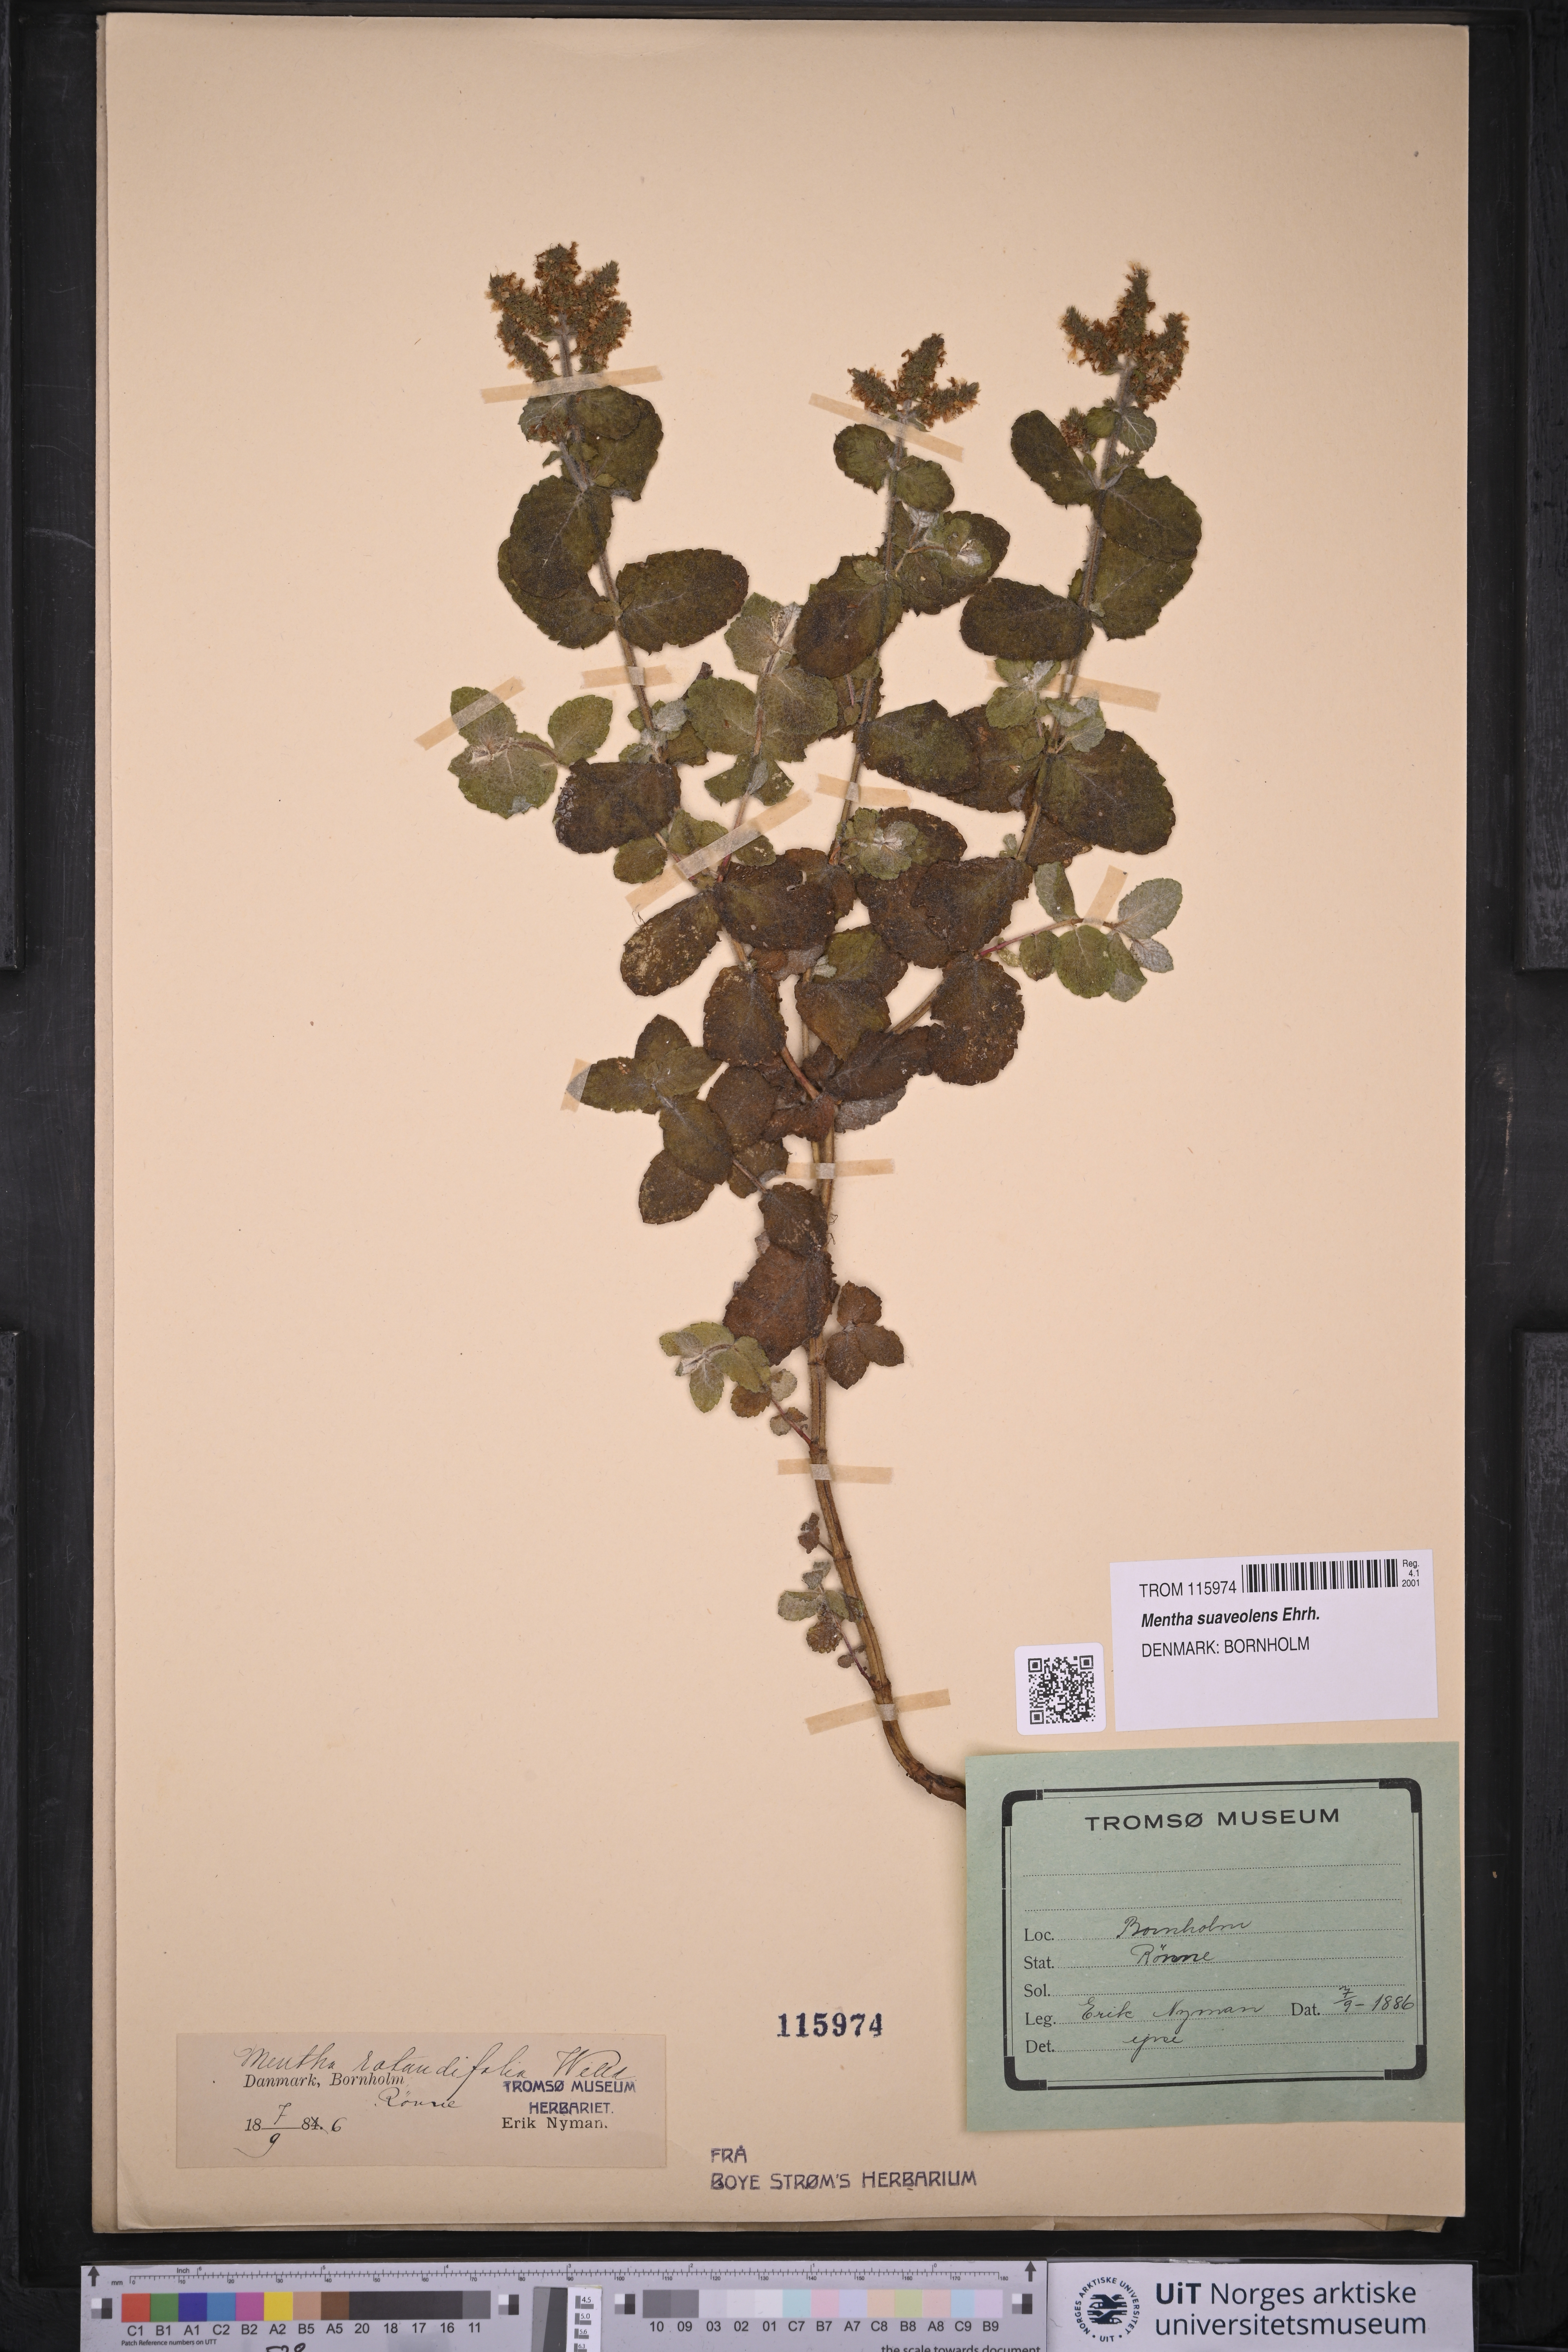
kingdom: Plantae
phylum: Tracheophyta
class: Magnoliopsida
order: Lamiales
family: Lamiaceae
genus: Mentha
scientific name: Mentha suaveolens
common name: Apple mint
